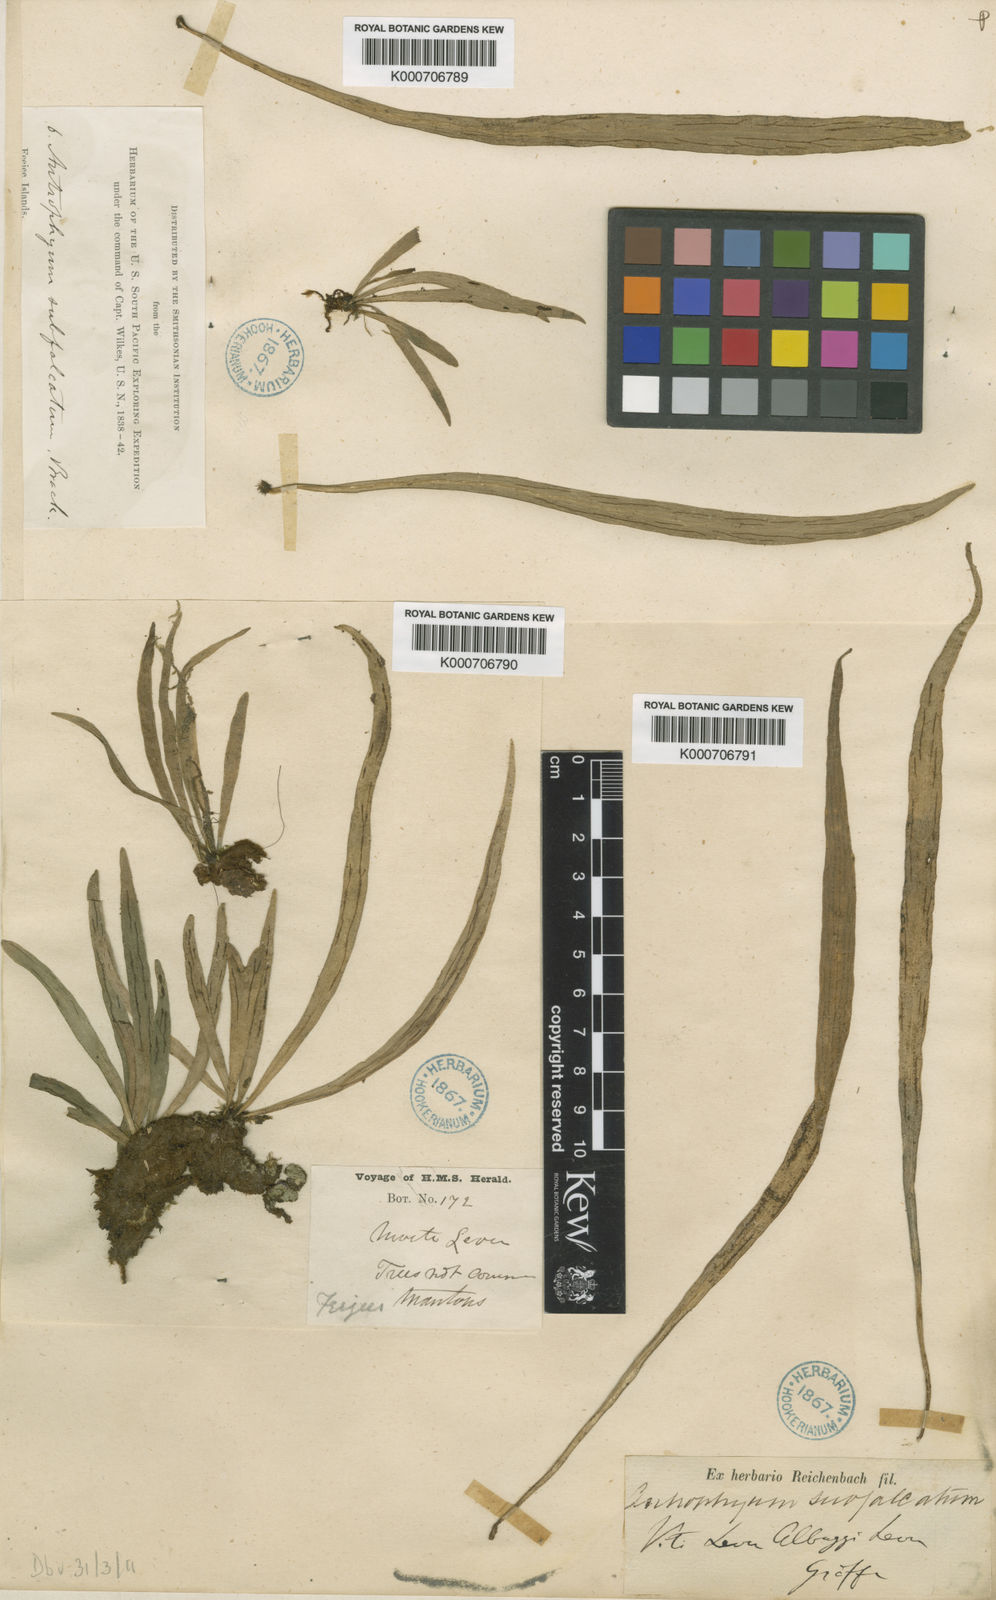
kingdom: Plantae
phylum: Tracheophyta
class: Polypodiopsida
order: Polypodiales
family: Pteridaceae
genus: Antrophyum
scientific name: Antrophyum subfalcatum
